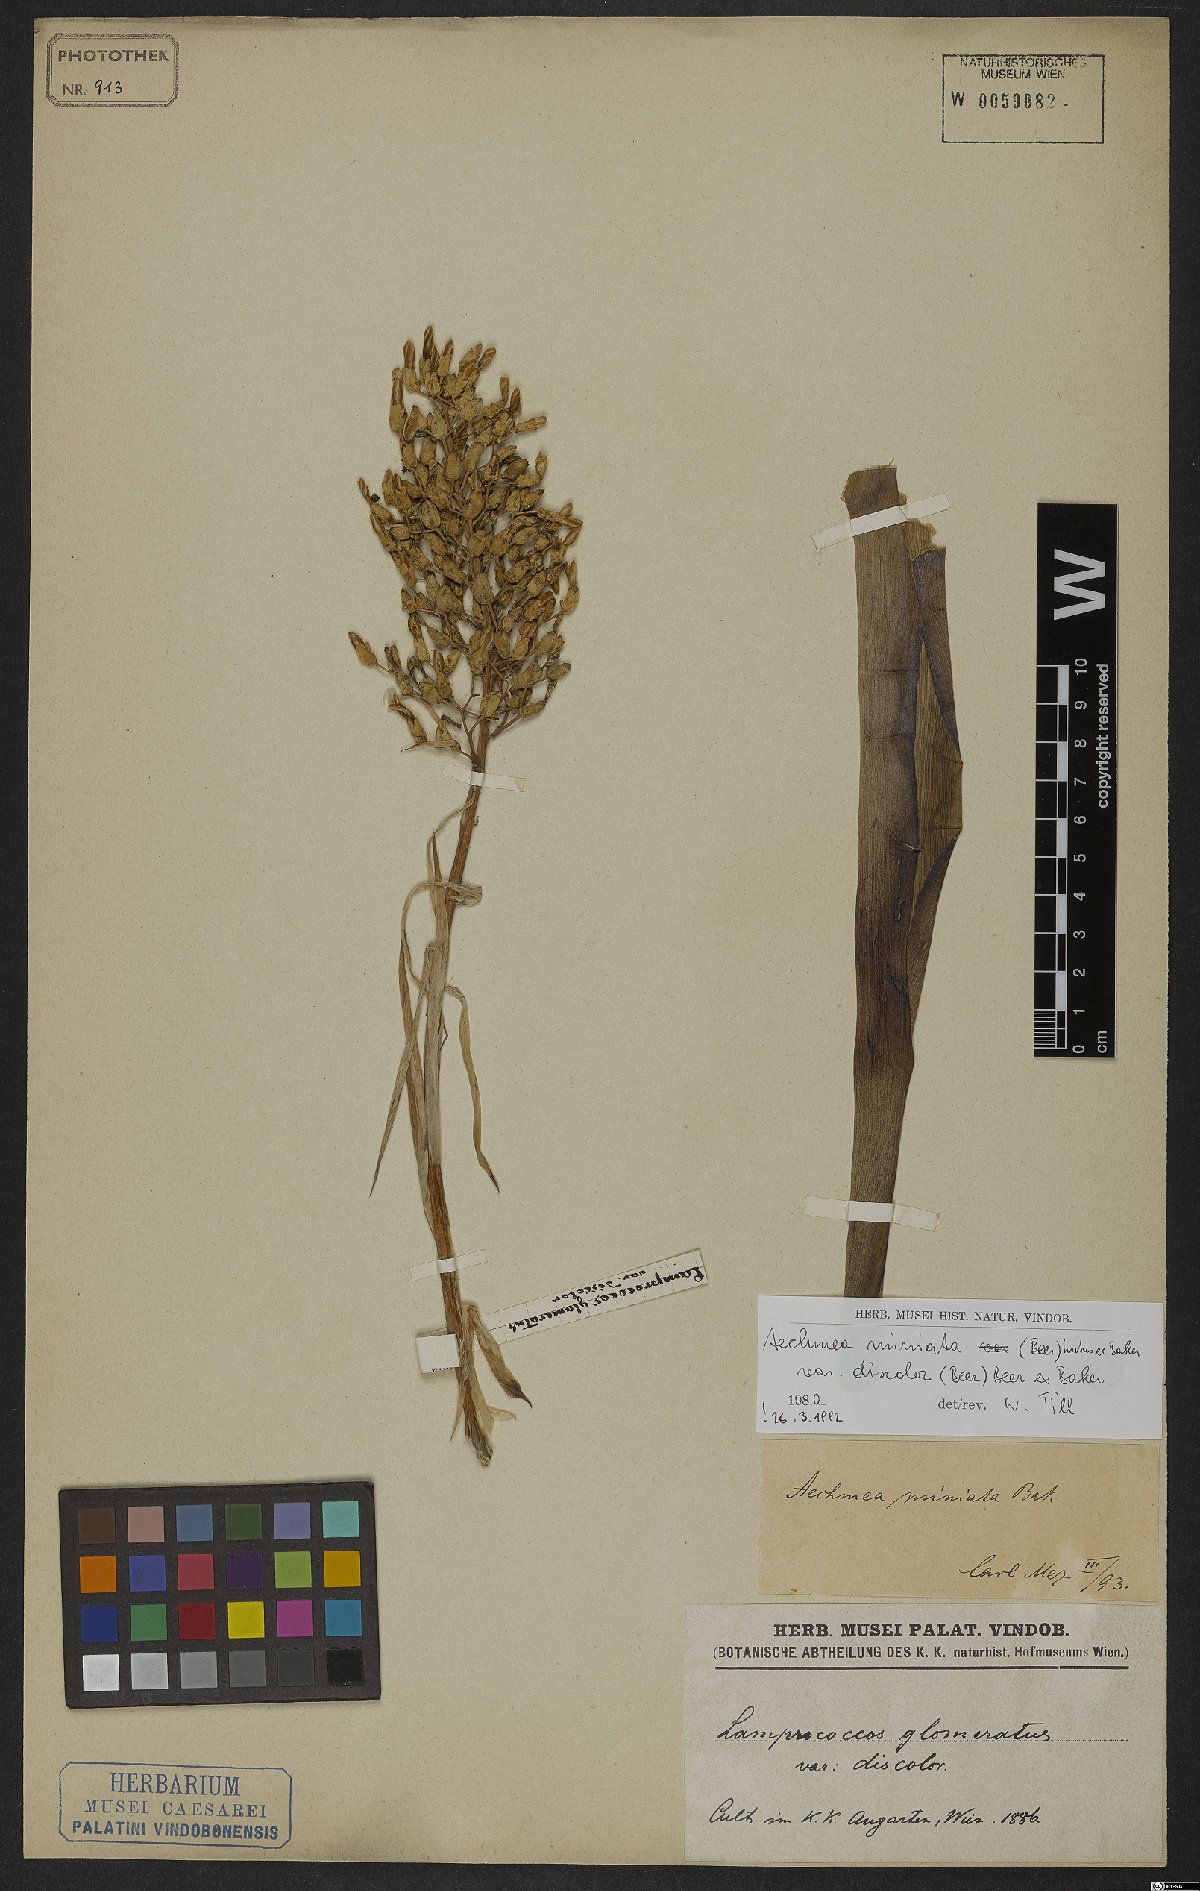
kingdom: Plantae
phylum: Tracheophyta
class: Liliopsida
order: Poales
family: Bromeliaceae
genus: Aechmea
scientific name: Aechmea miniata
